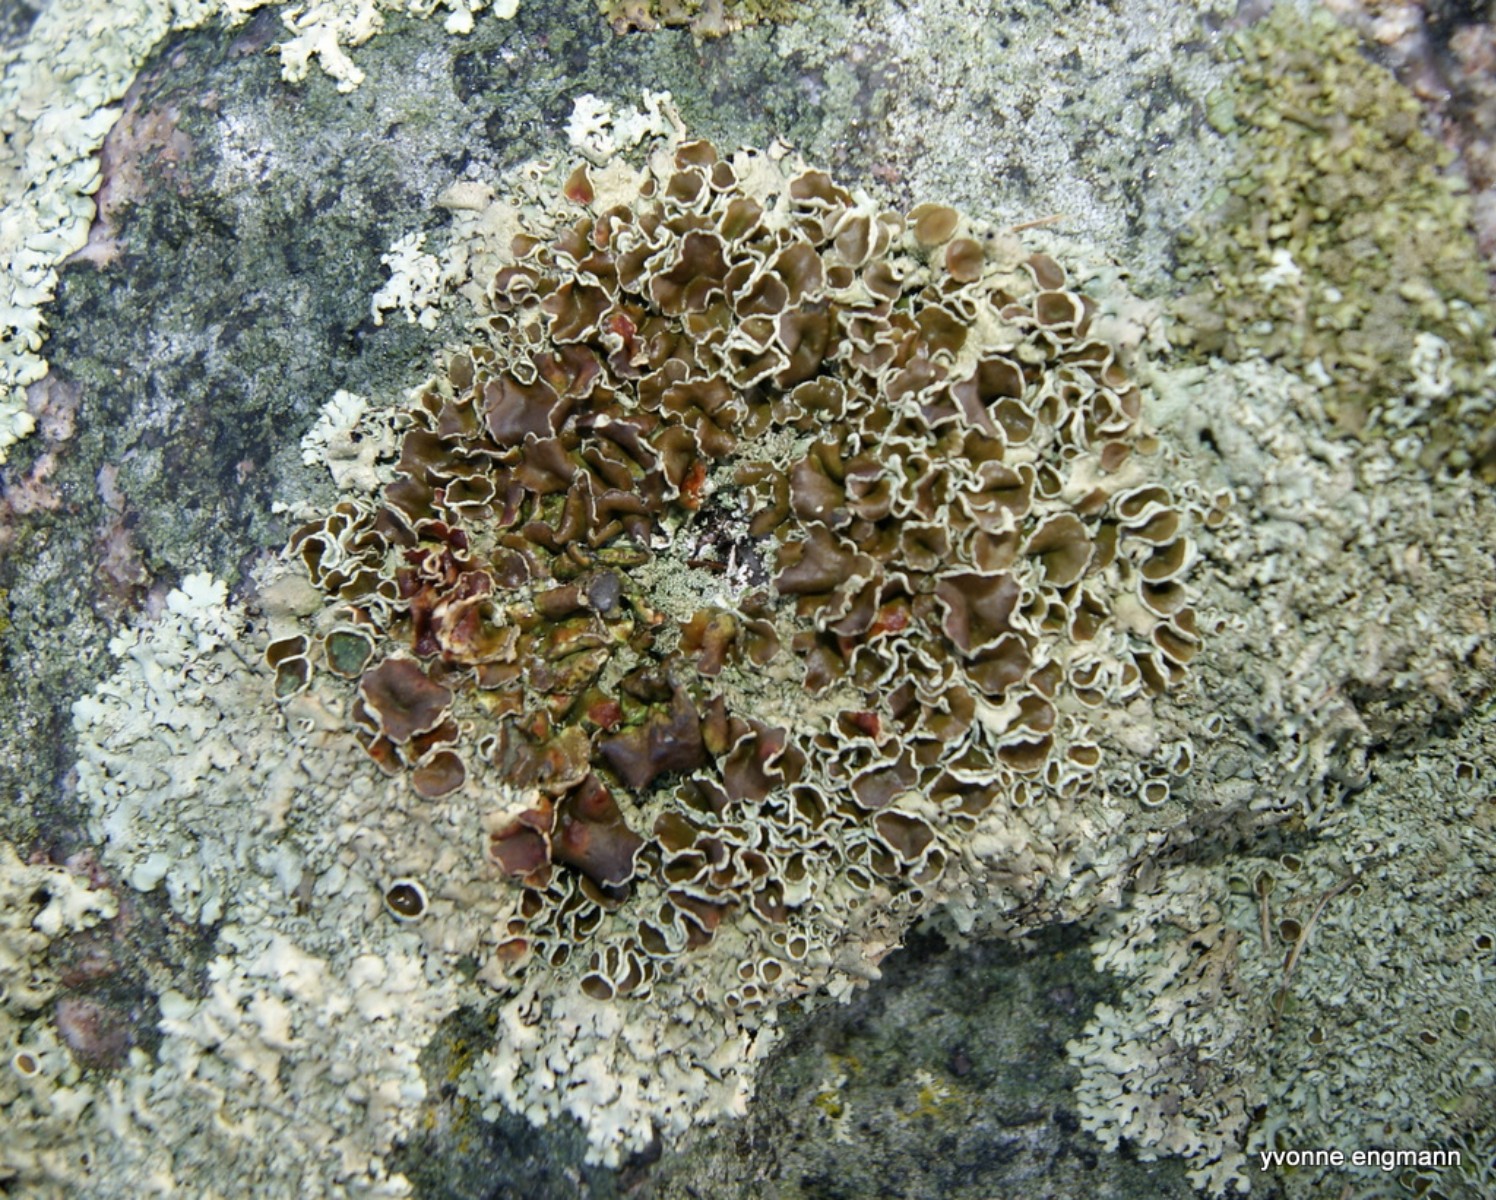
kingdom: Fungi
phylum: Ascomycota
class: Lecanoromycetes
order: Lecanorales
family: Parmeliaceae
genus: Xanthoparmelia
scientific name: Xanthoparmelia conspersa
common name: messing-skållav
